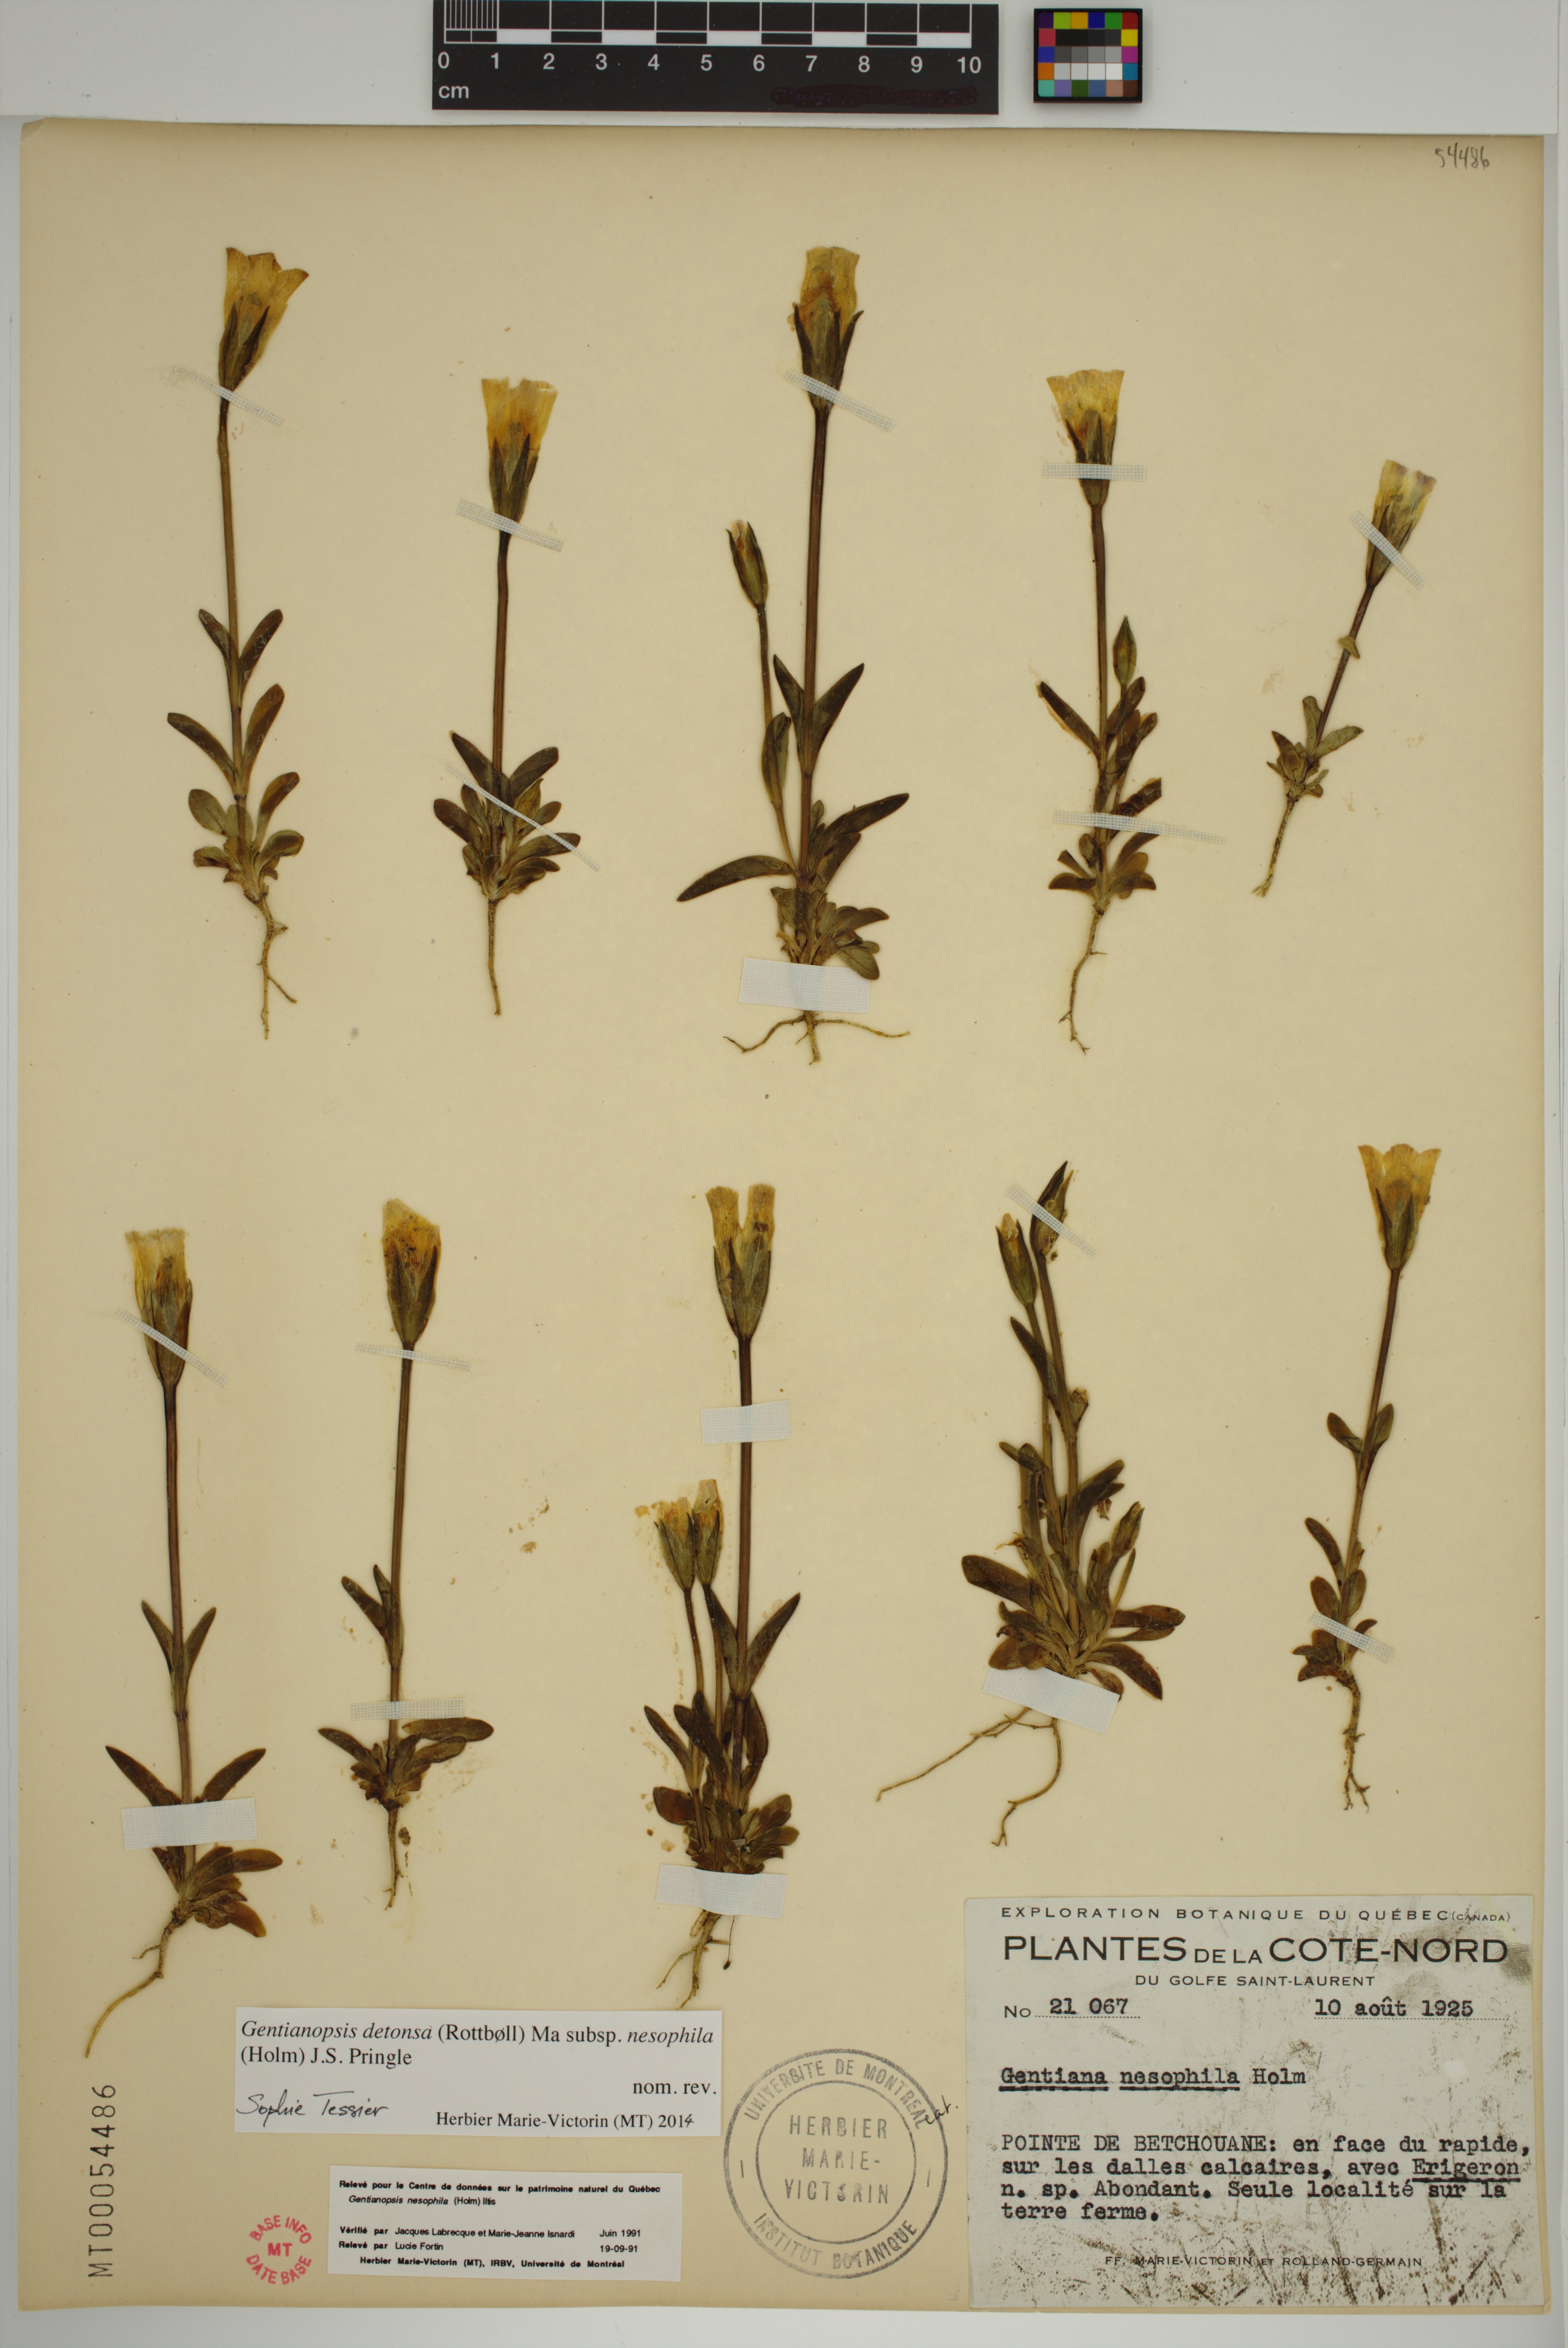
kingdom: Plantae
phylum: Tracheophyta
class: Magnoliopsida
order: Gentianales
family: Gentianaceae
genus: Gentianopsis
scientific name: Gentianopsis nesophila
